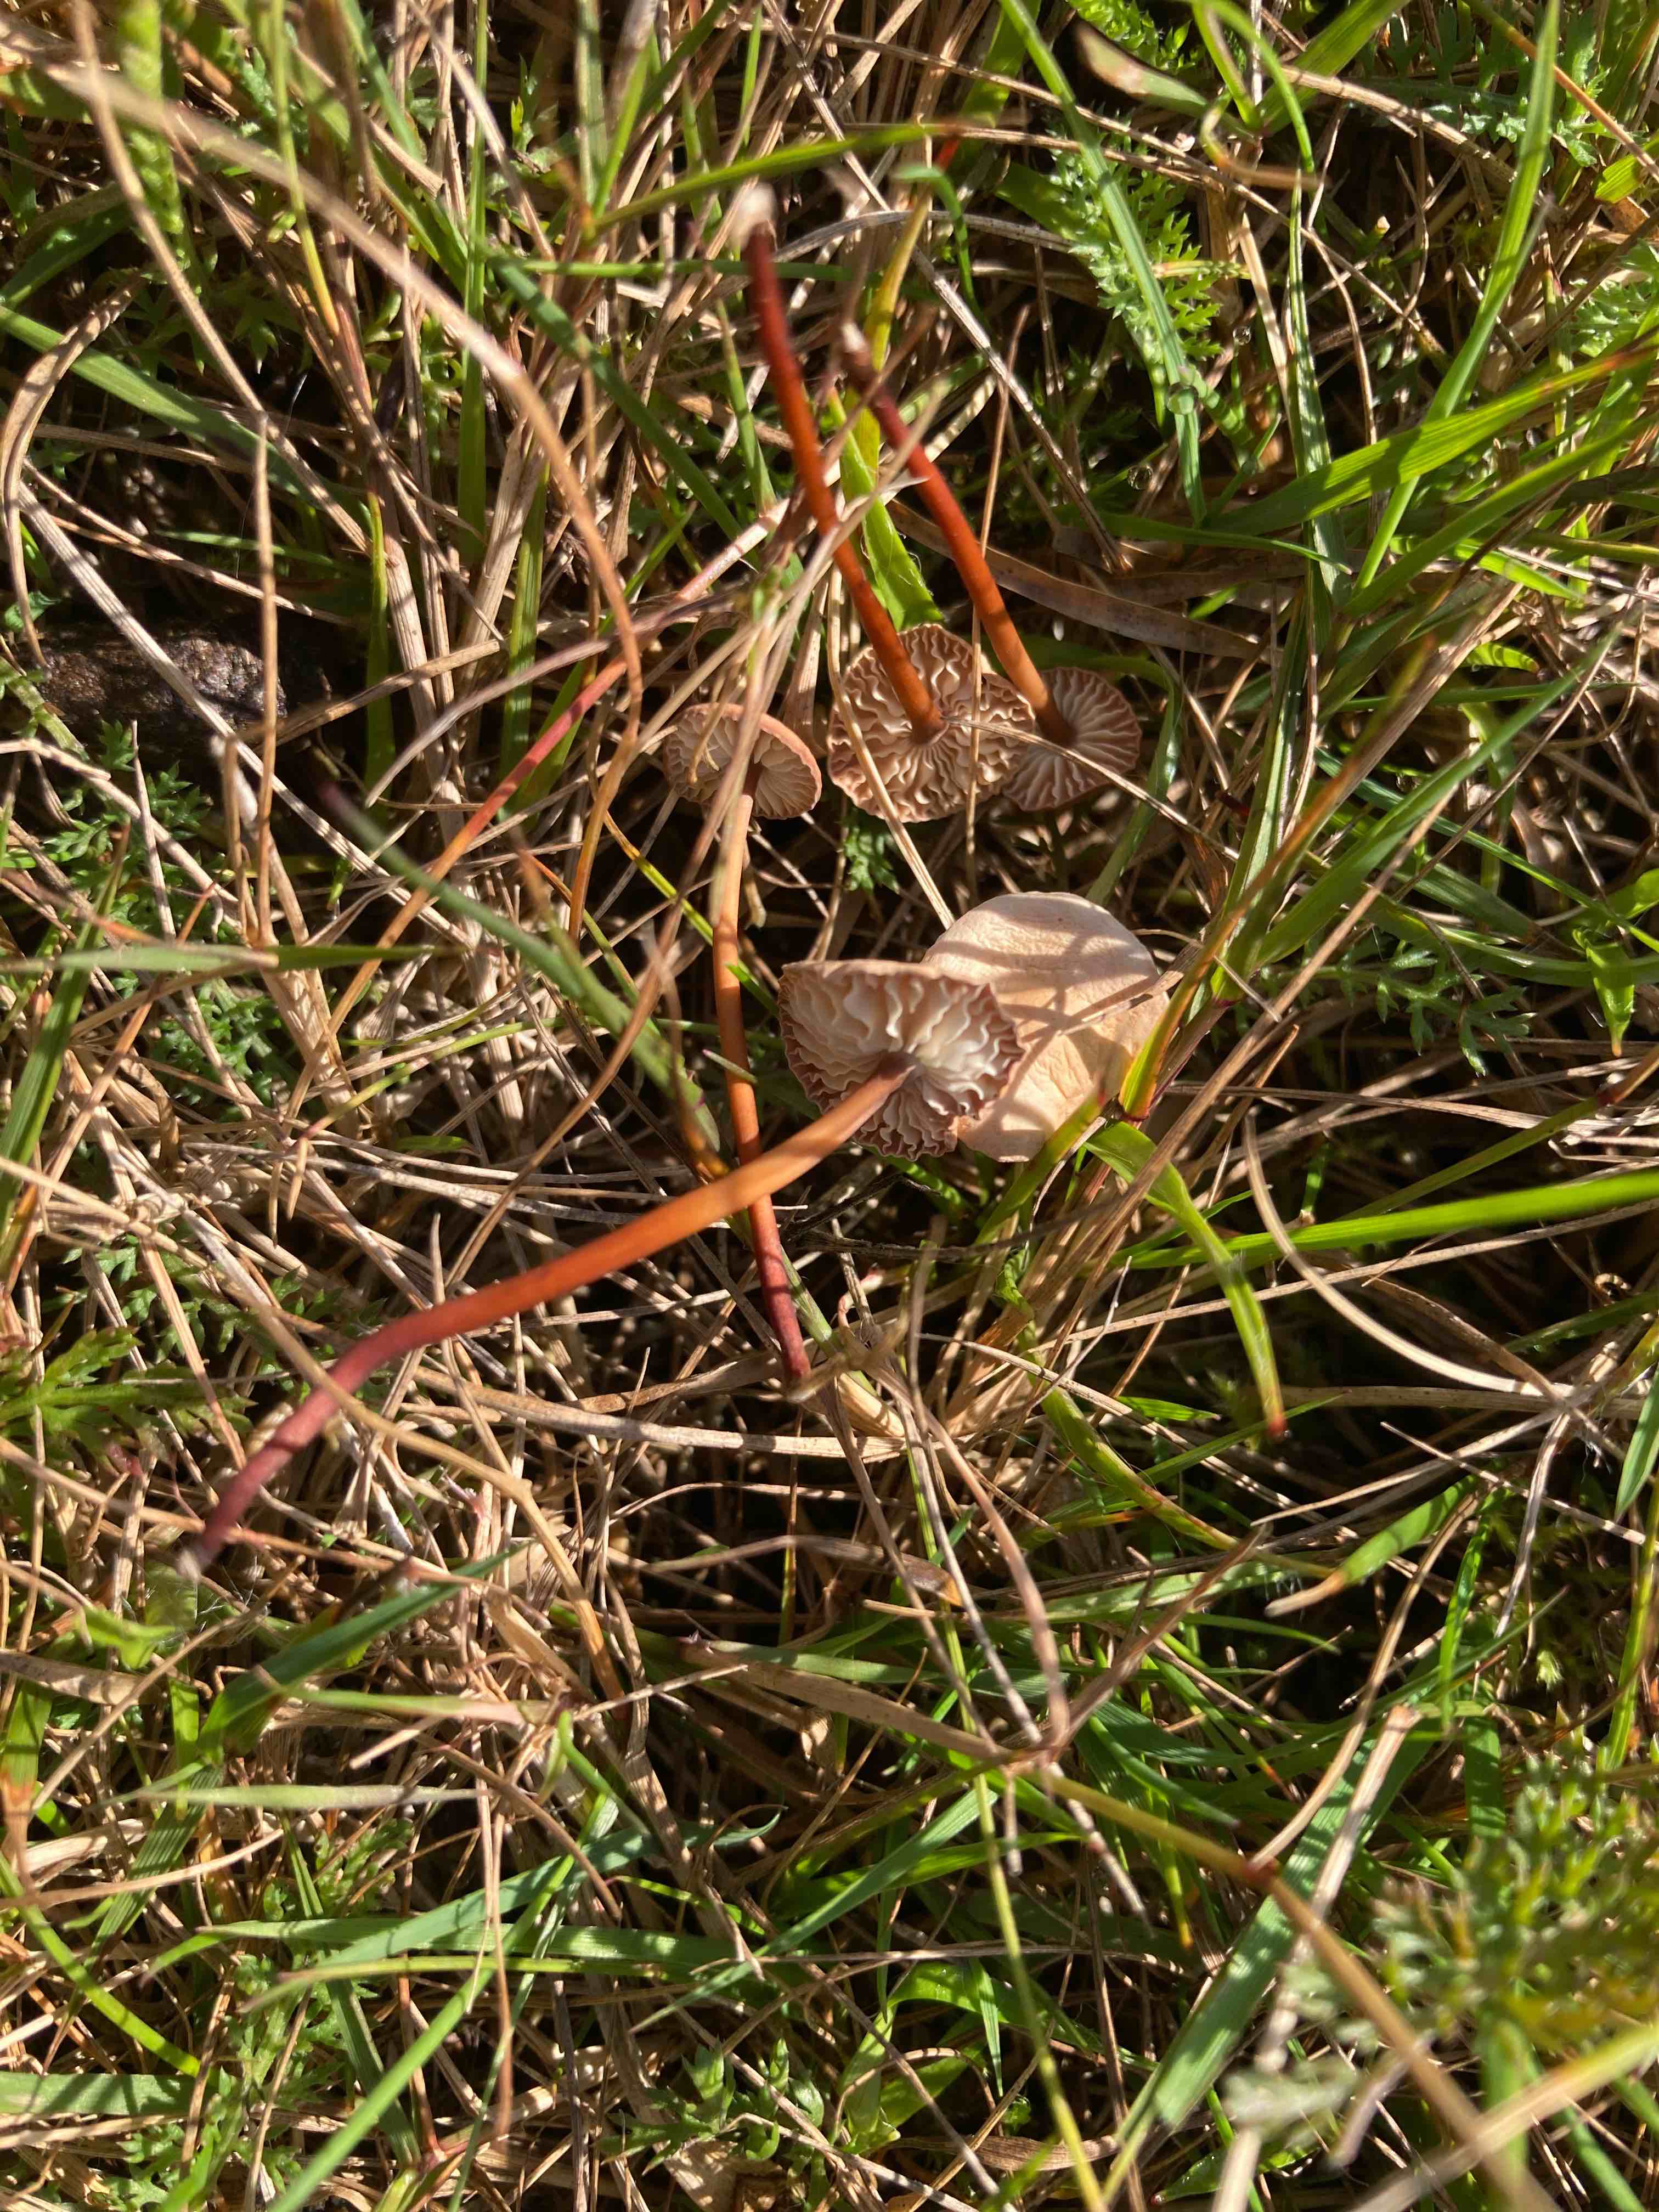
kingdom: Fungi
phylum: Basidiomycota
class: Agaricomycetes
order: Agaricales
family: Omphalotaceae
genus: Mycetinis
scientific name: Mycetinis scorodonius
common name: lille løghat
